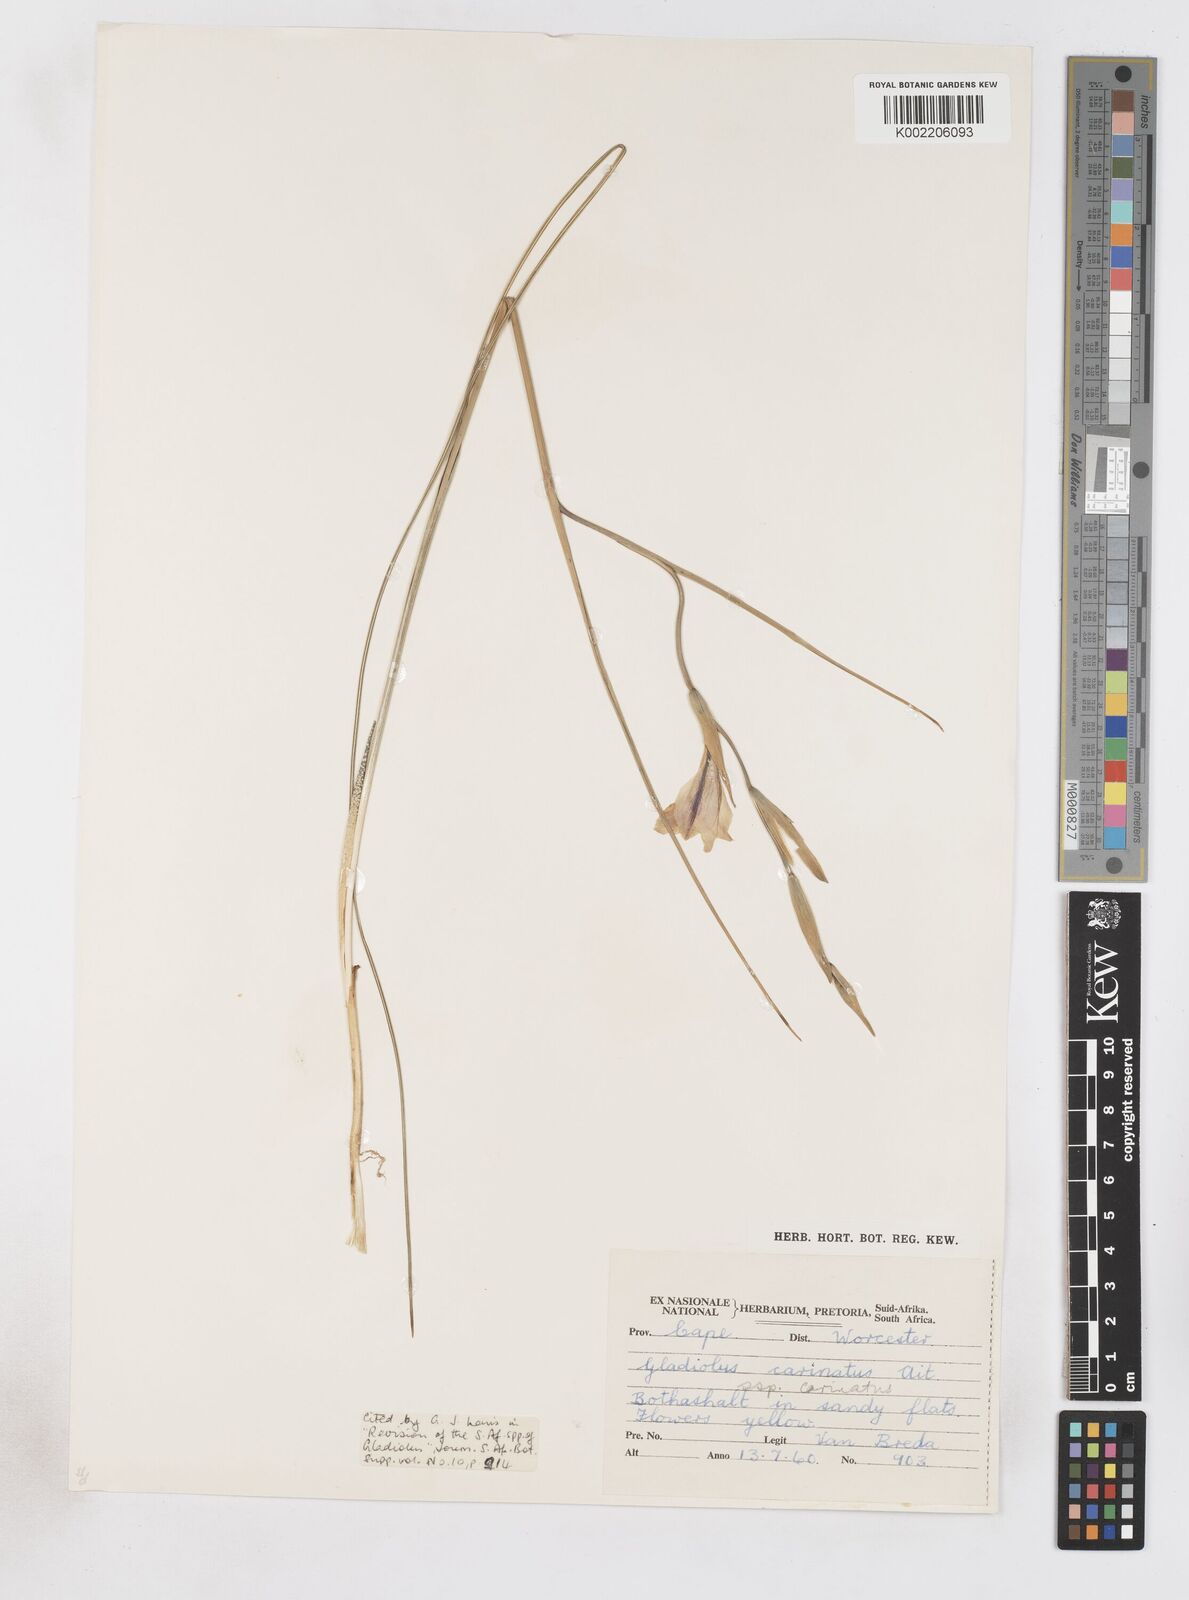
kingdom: Plantae
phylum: Tracheophyta
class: Liliopsida
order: Asparagales
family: Iridaceae
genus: Gladiolus
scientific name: Gladiolus carinatus
